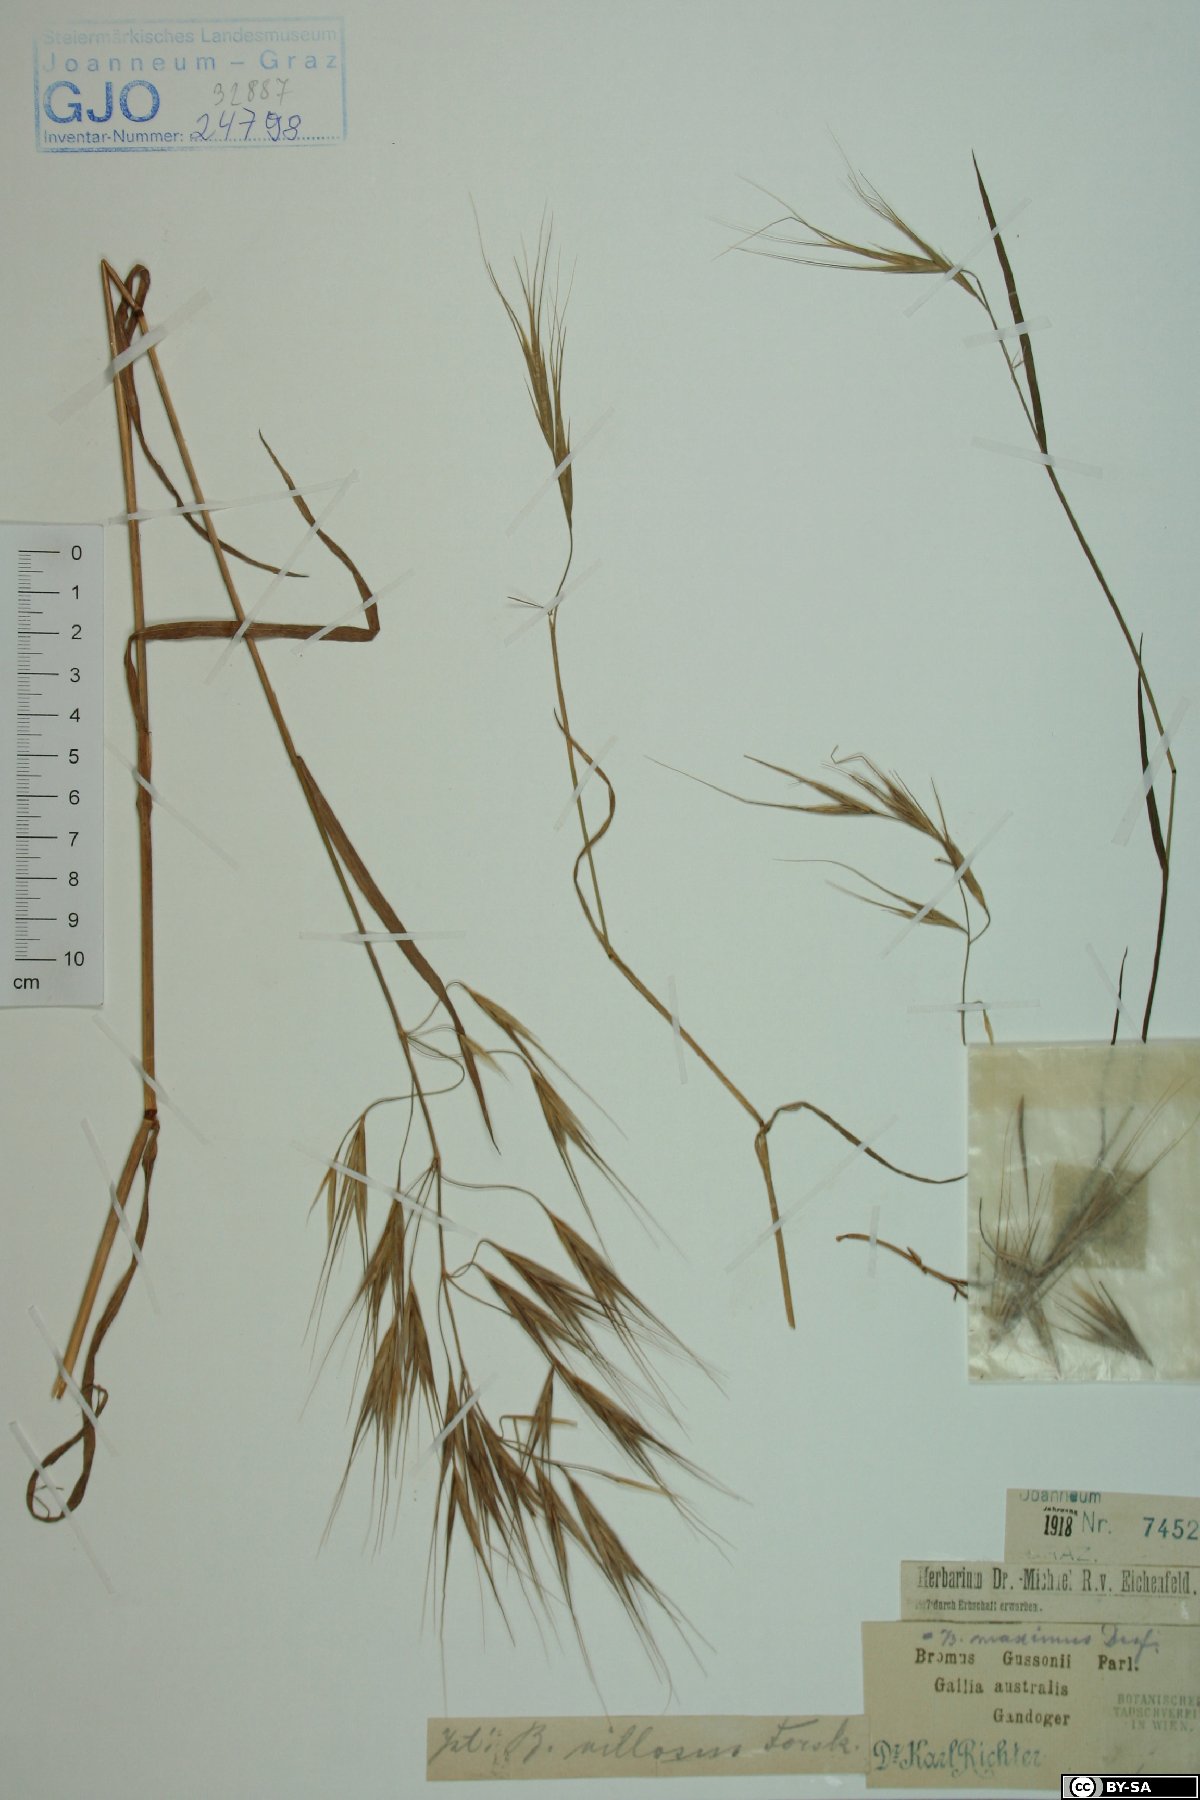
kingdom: Plantae
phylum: Tracheophyta
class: Liliopsida
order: Poales
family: Poaceae
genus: Bromus
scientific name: Bromus diandrus
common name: Ripgut brome
